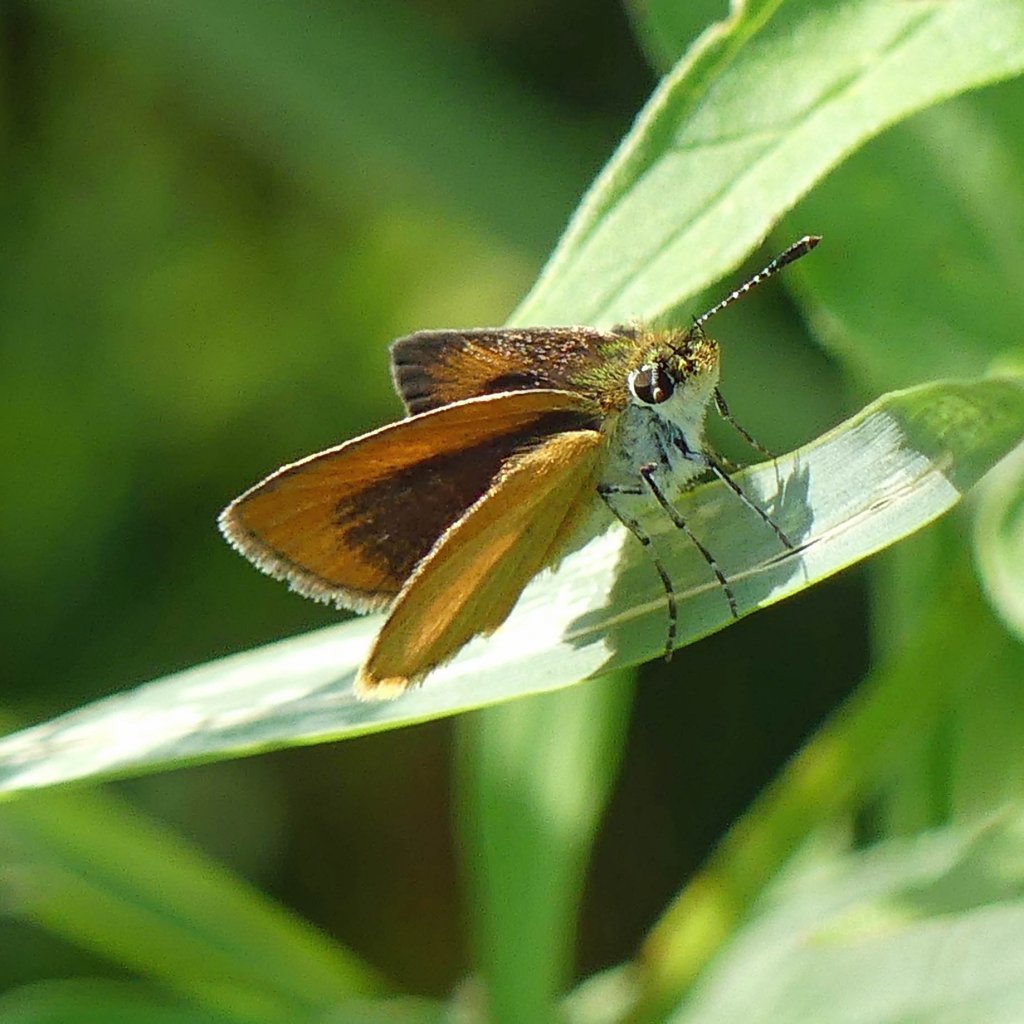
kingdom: Animalia
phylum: Arthropoda
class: Insecta
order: Lepidoptera
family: Hesperiidae
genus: Ancyloxypha
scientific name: Ancyloxypha numitor
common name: Least Skipper
